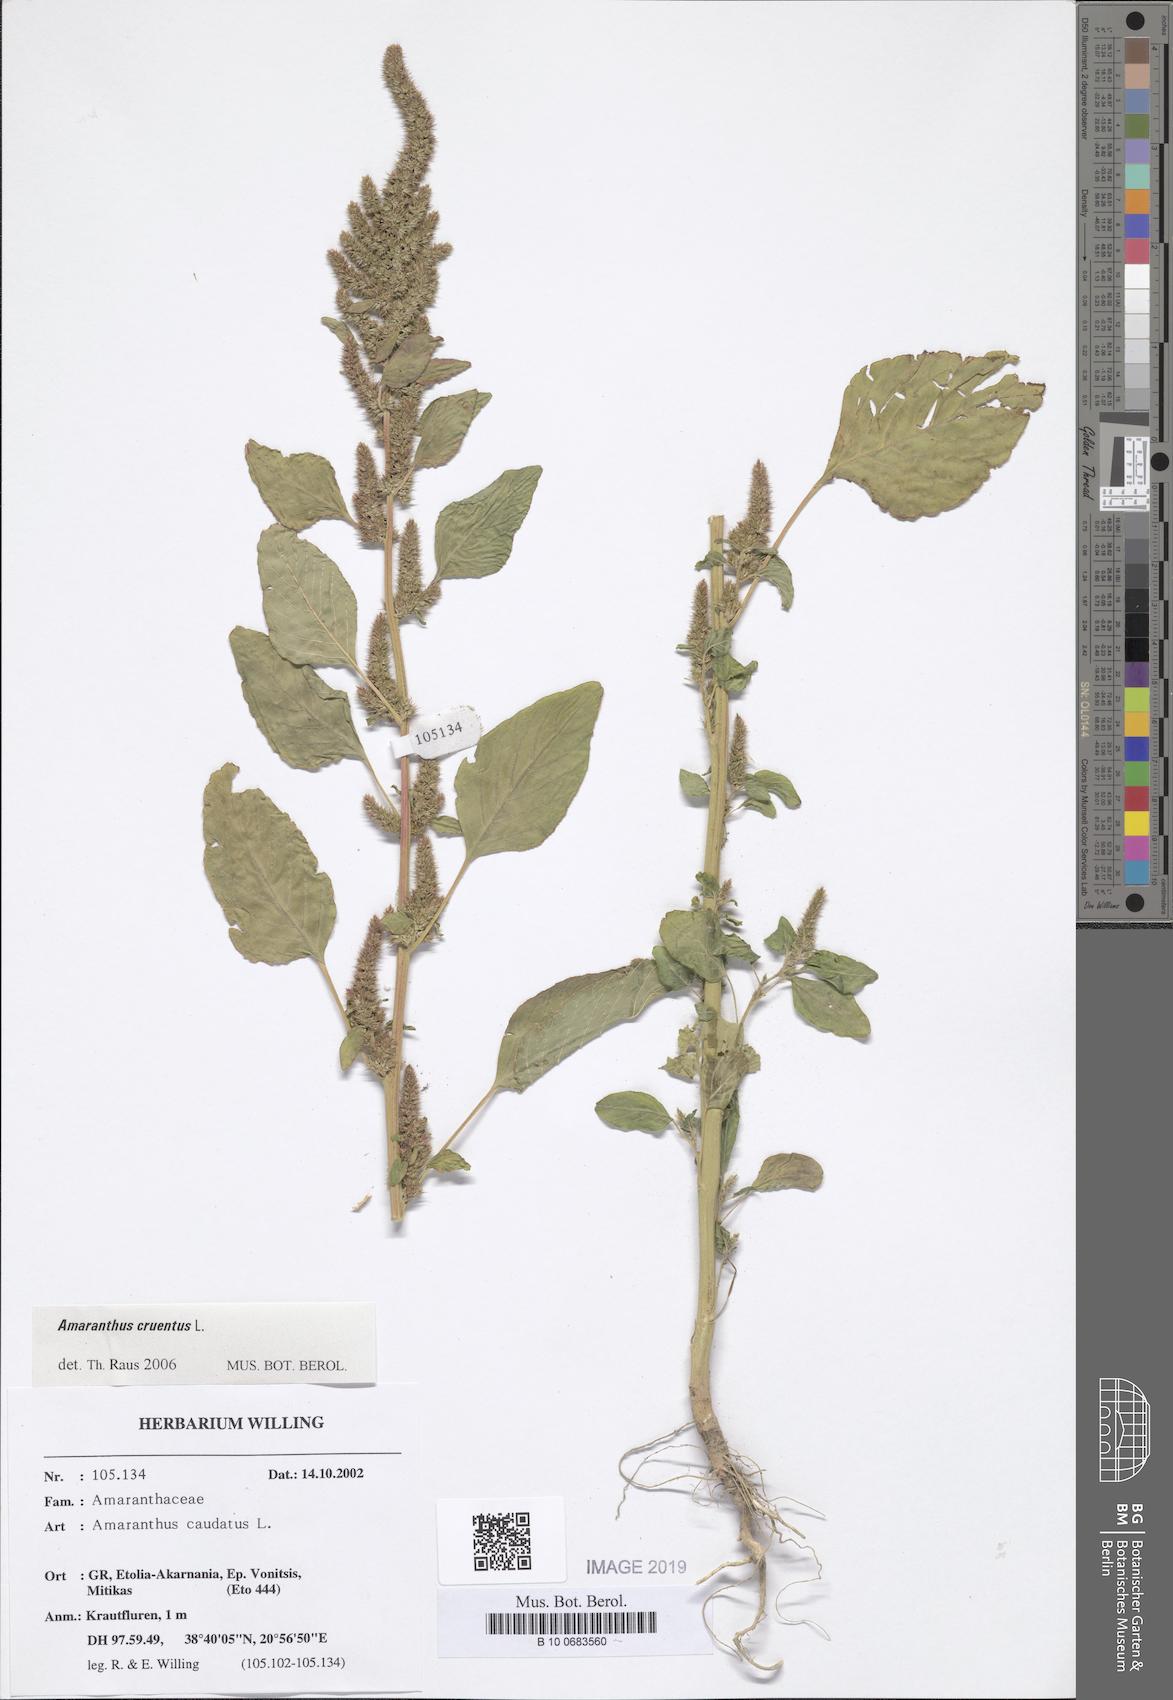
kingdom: Plantae
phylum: Tracheophyta
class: Magnoliopsida
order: Caryophyllales
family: Amaranthaceae
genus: Amaranthus
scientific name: Amaranthus cruentus
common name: Purple amaranth
